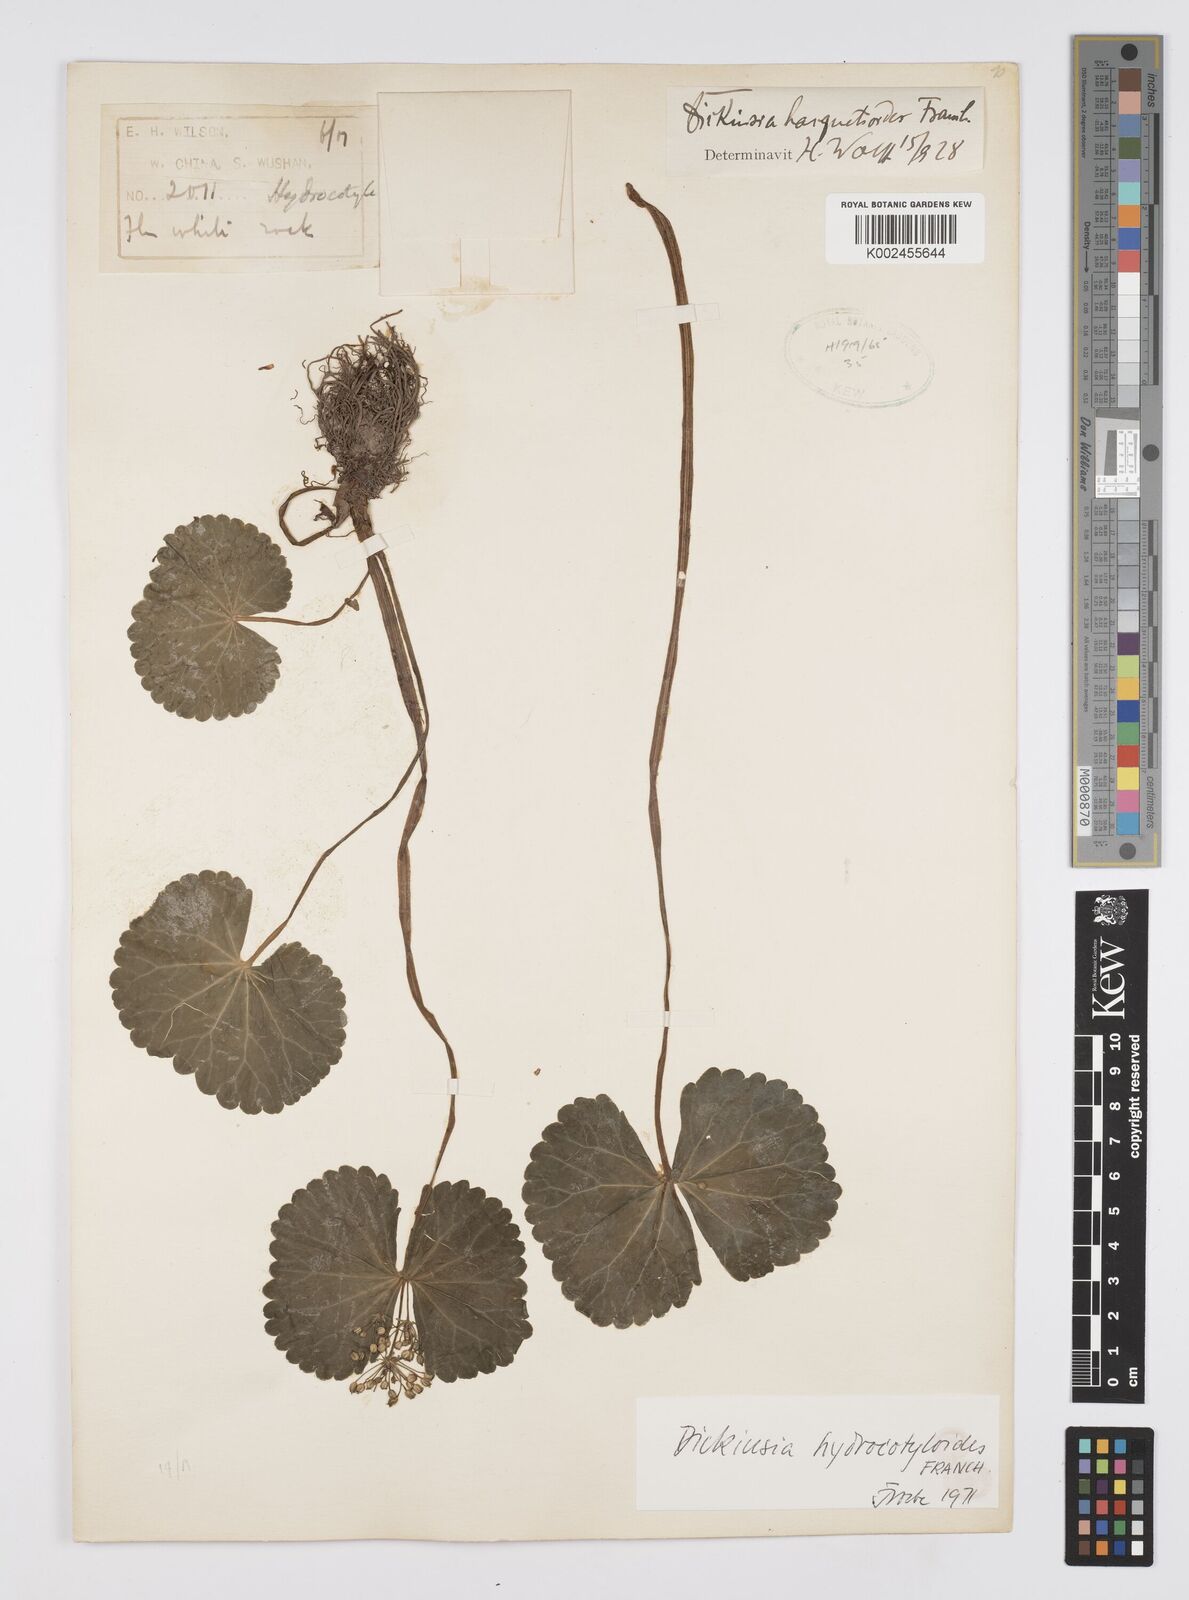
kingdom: Plantae
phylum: Tracheophyta
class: Magnoliopsida
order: Apiales
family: Apiaceae
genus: Dickinsia
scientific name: Dickinsia hydrocotyloides
